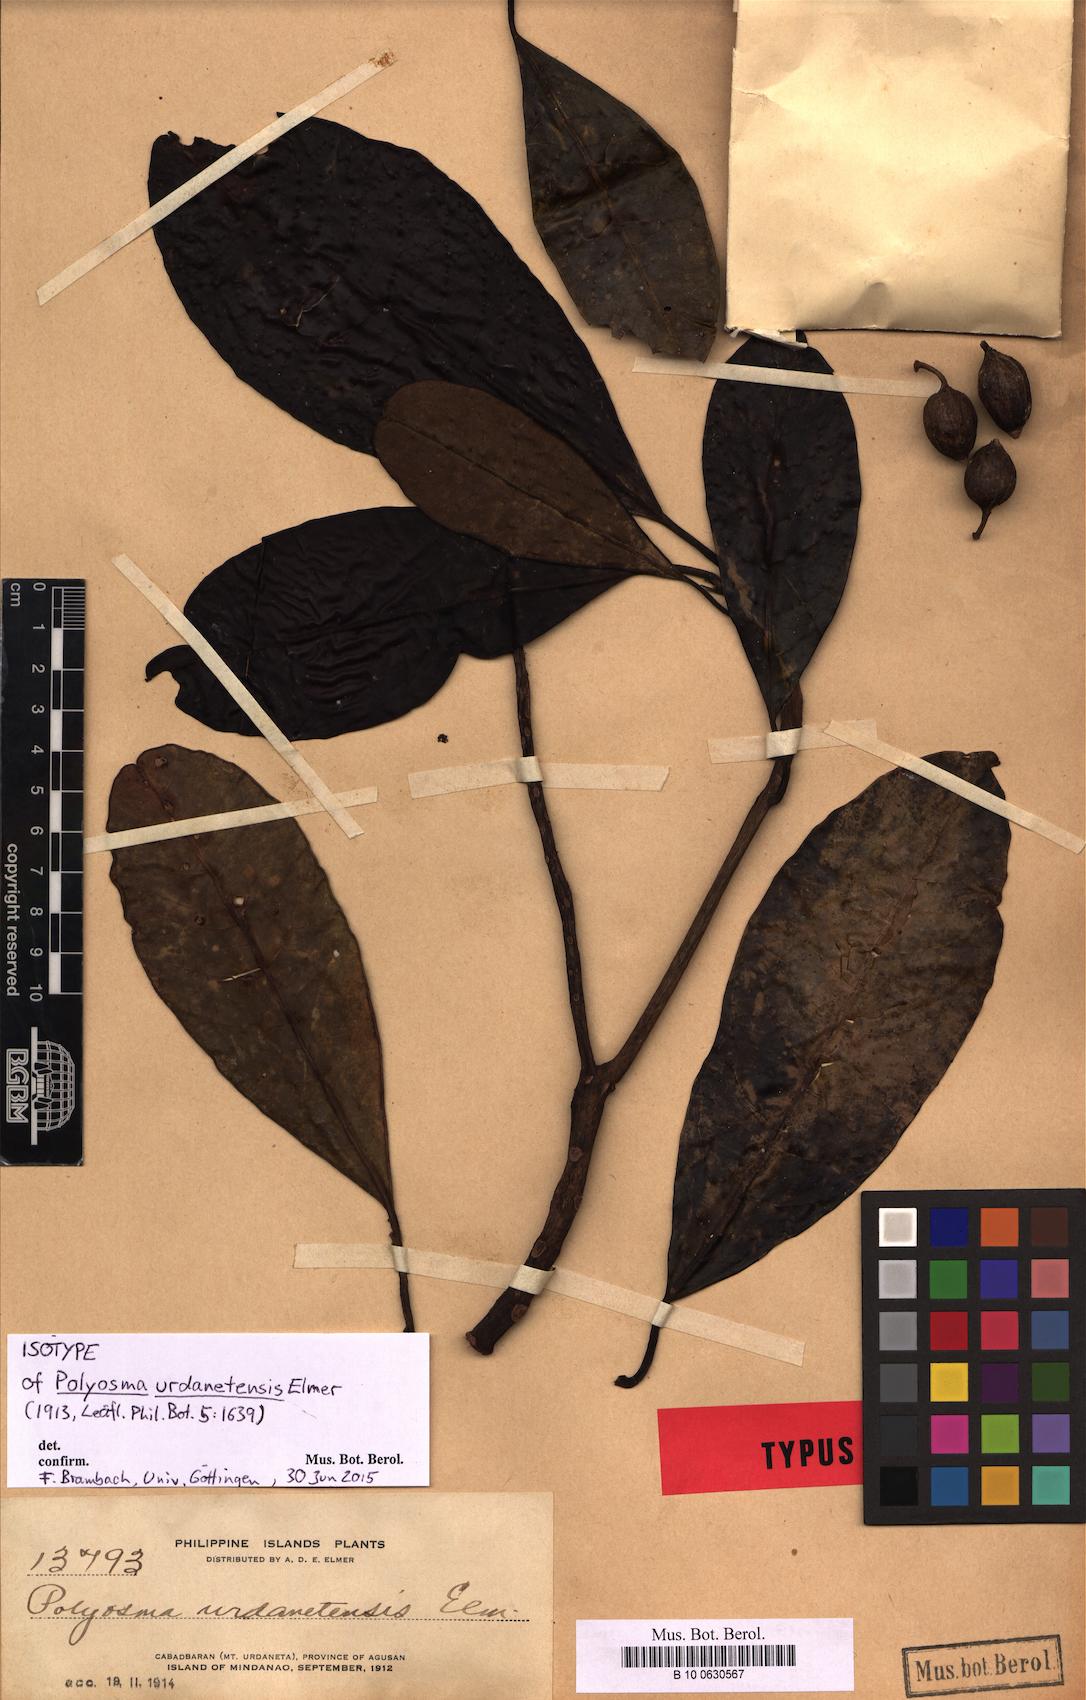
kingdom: Plantae
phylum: Tracheophyta
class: Magnoliopsida
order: Escalloniales
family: Escalloniaceae
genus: Polyosma
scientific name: Polyosma urdanetensis
